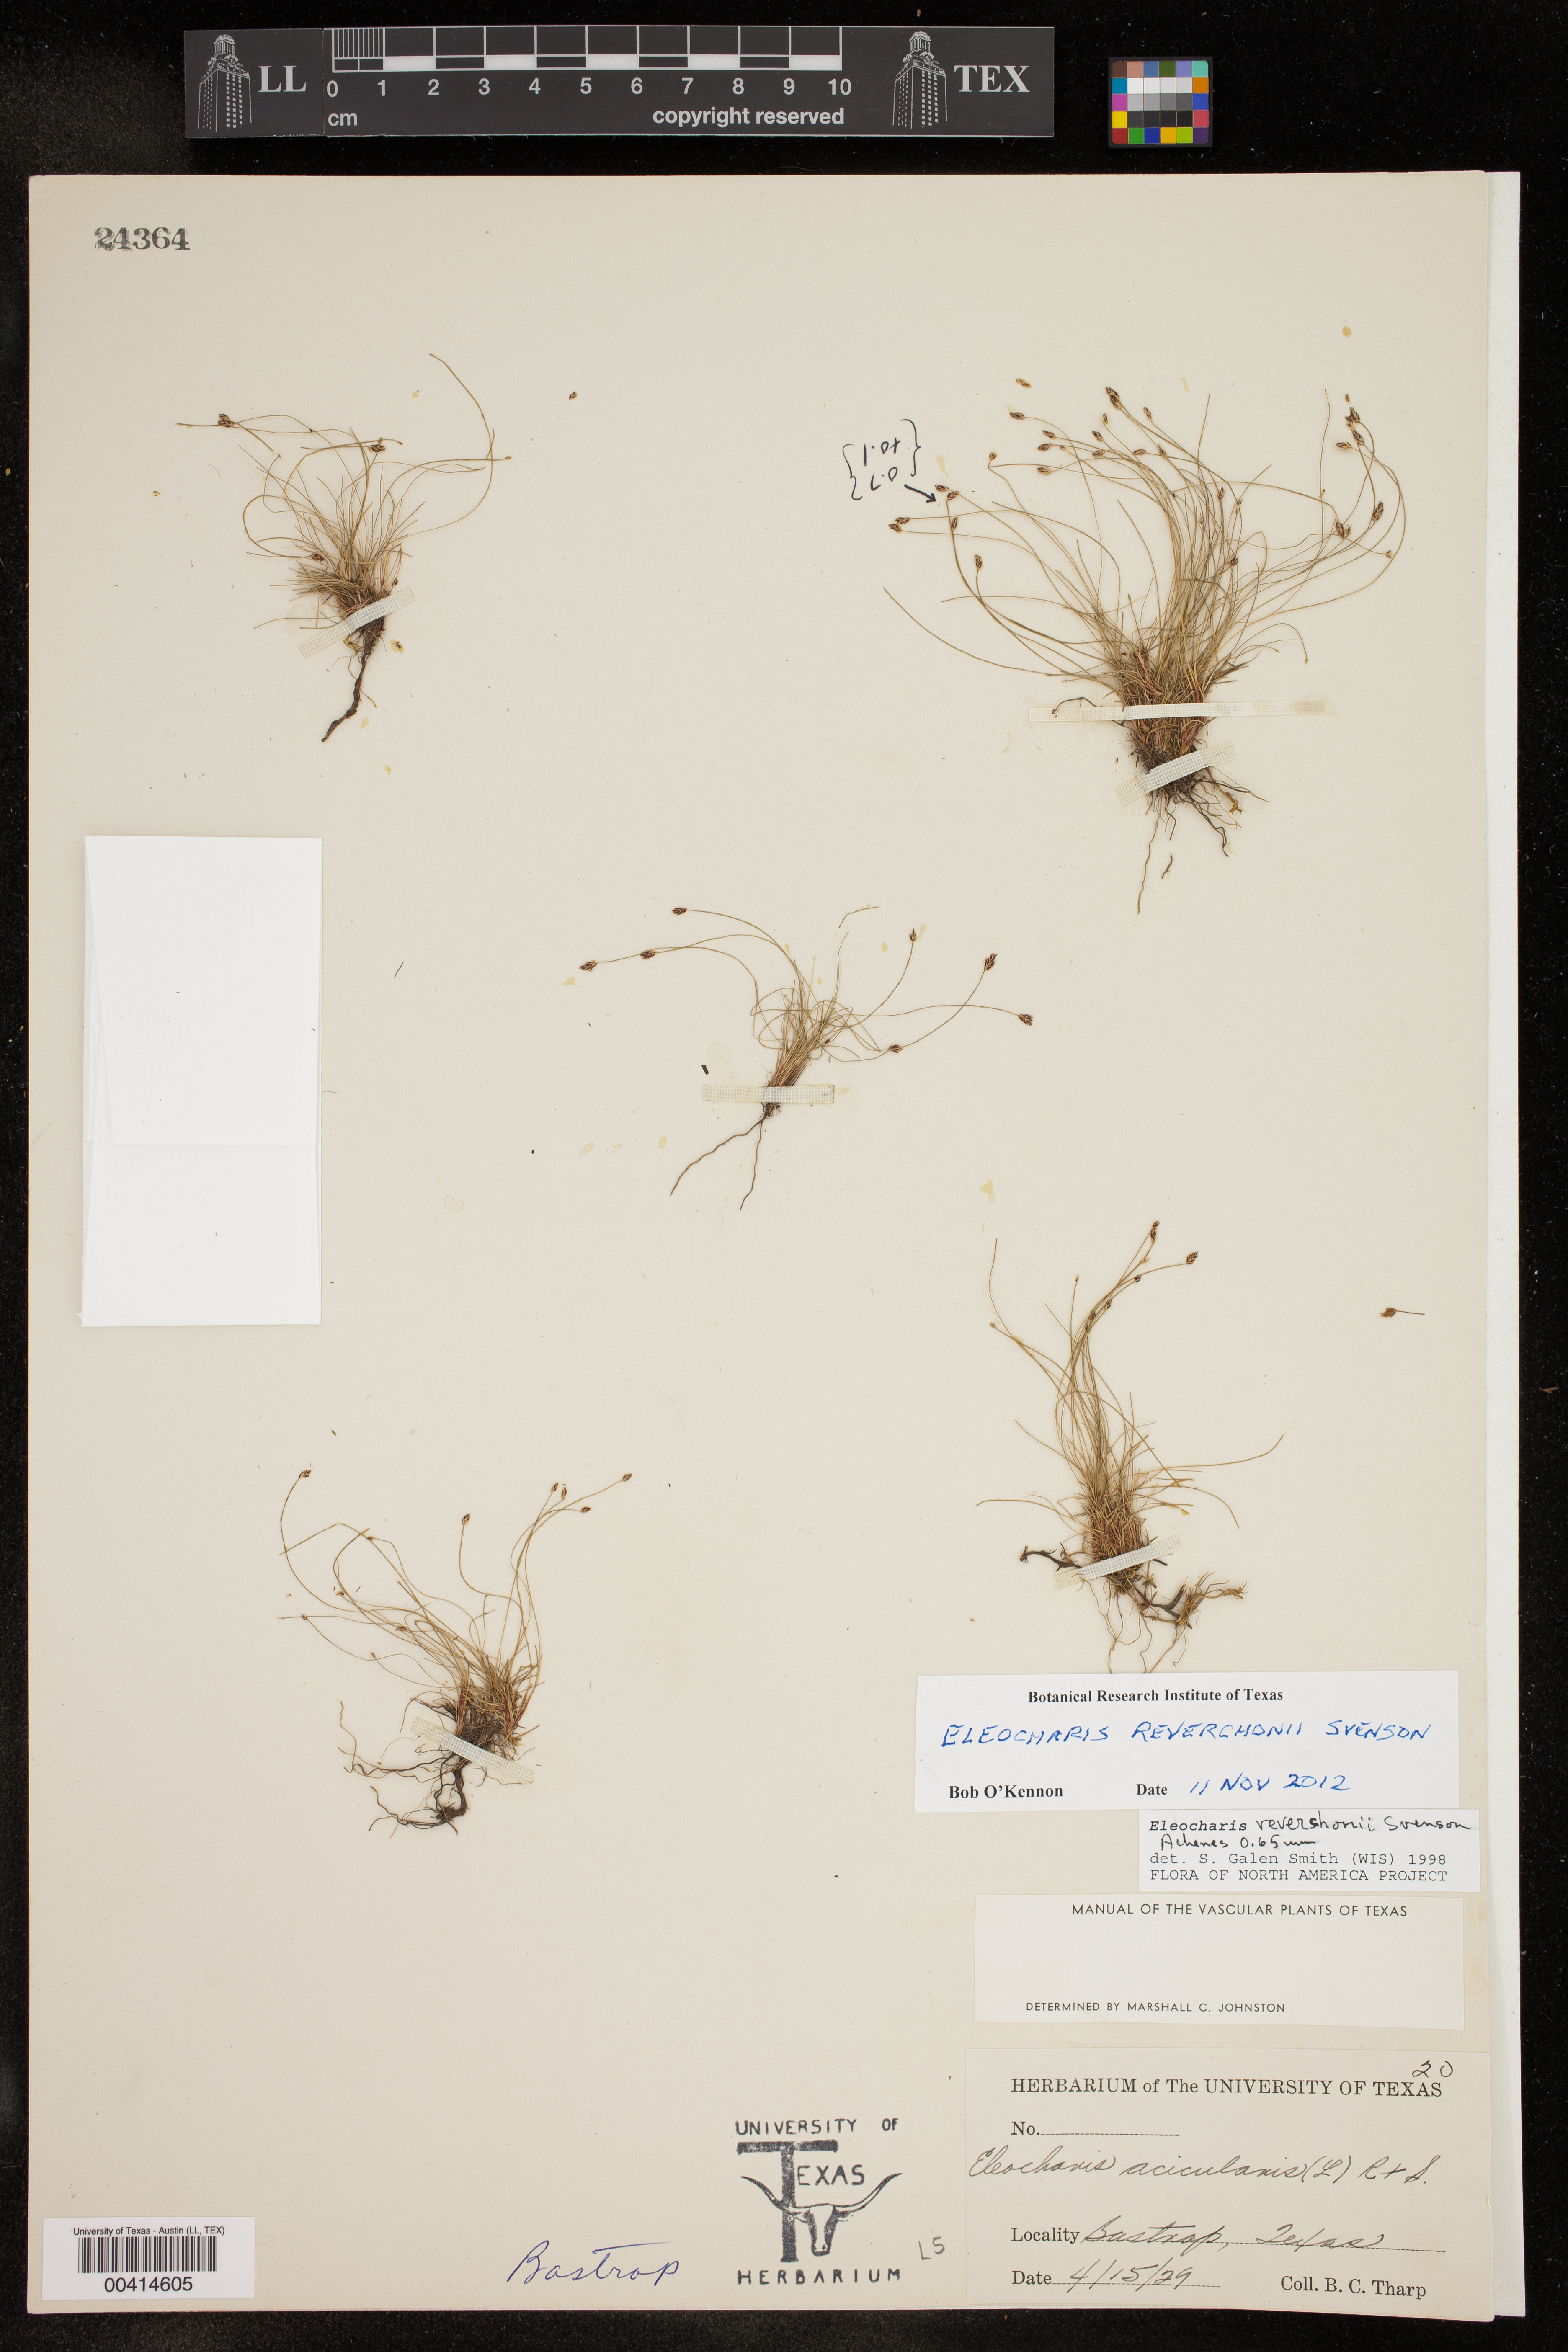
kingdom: Plantae
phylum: Tracheophyta
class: Liliopsida
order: Poales
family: Cyperaceae
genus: Eleocharis
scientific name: Eleocharis reverchonii
